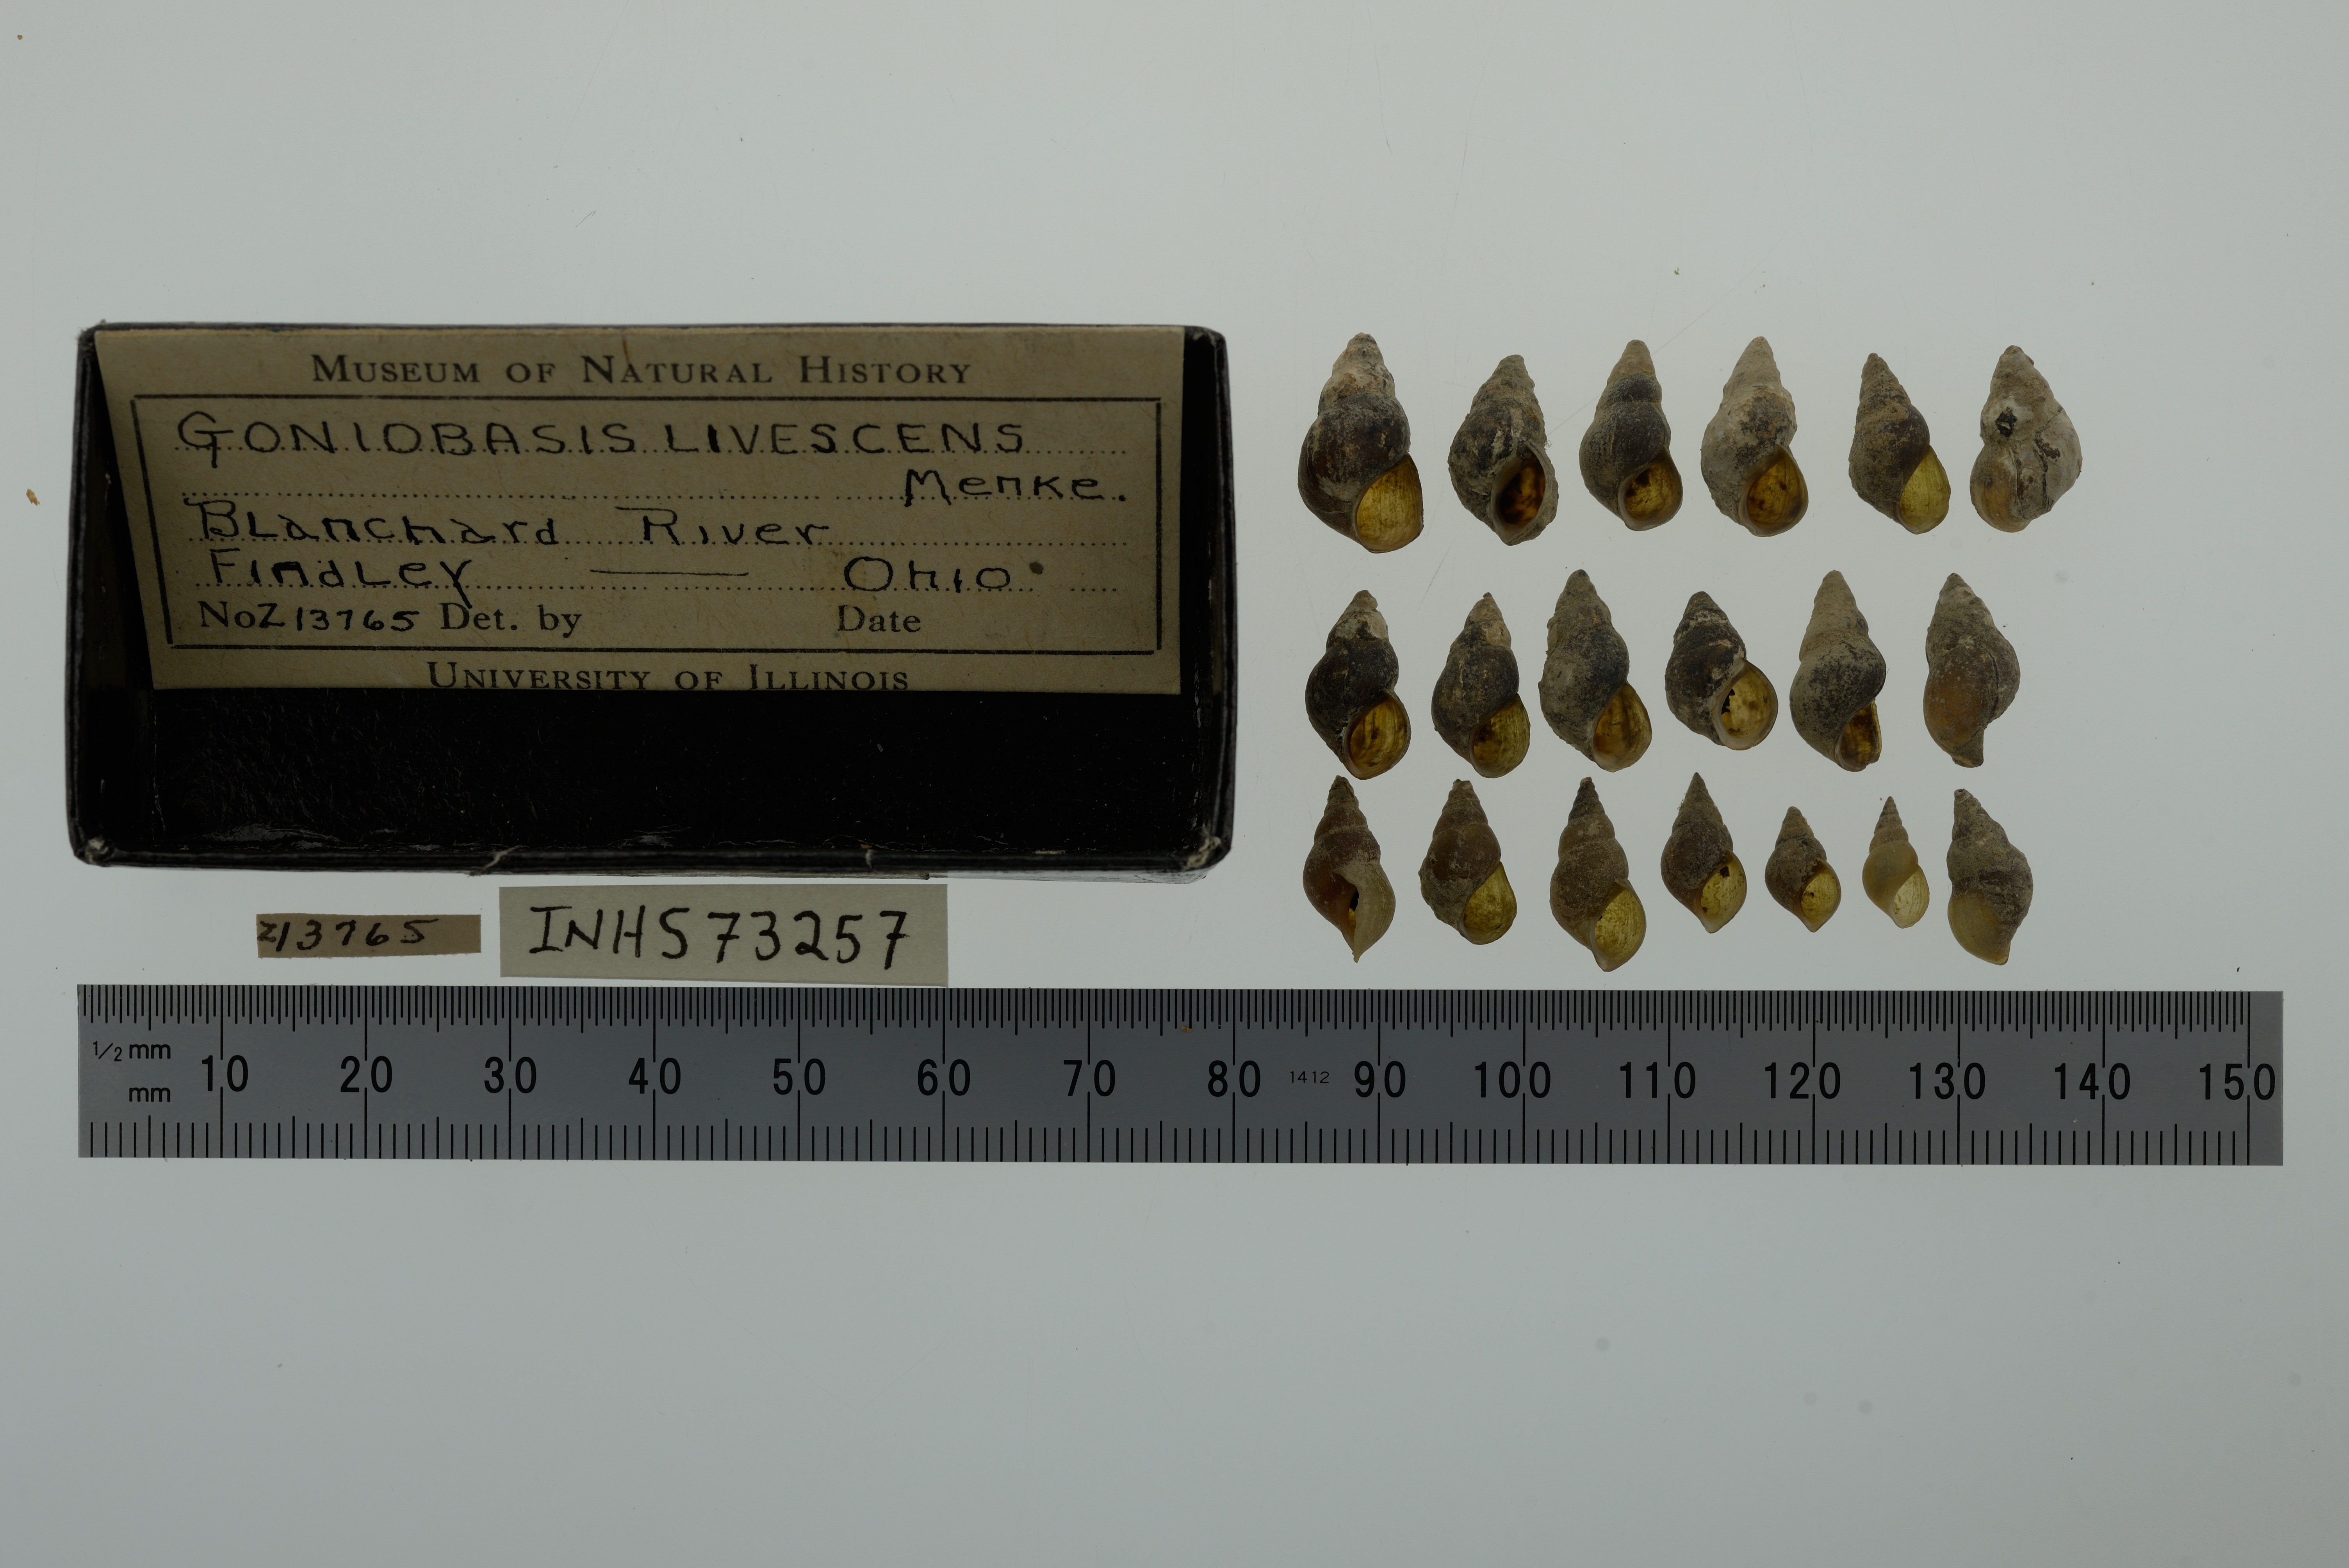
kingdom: Animalia
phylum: Mollusca
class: Gastropoda
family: Pleuroceridae
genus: Elimia
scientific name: Elimia livescens
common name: Liver elimia
